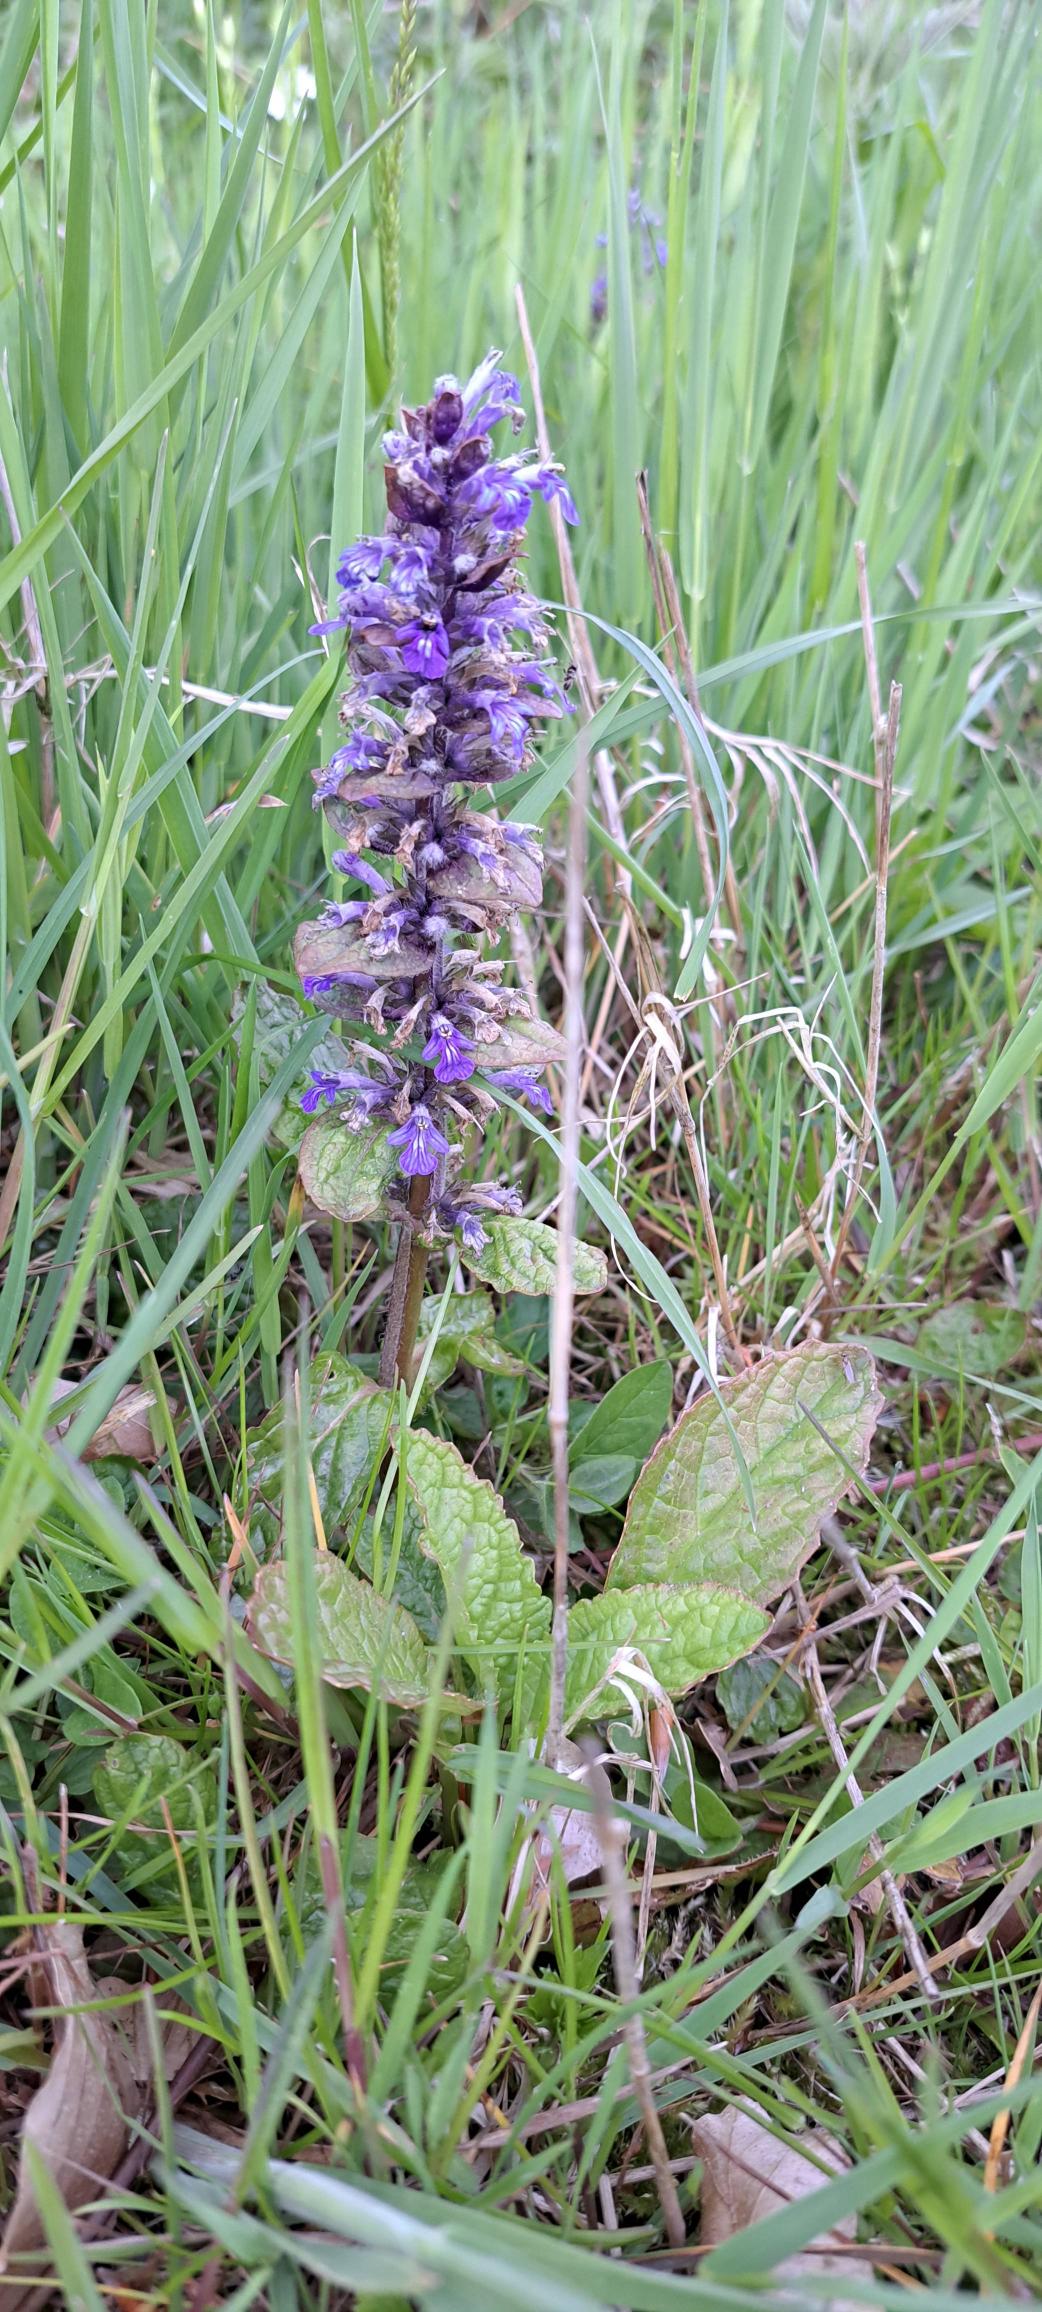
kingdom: Plantae
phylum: Tracheophyta
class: Magnoliopsida
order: Lamiales
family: Lamiaceae
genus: Ajuga
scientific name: Ajuga reptans
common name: Krybende læbeløs
